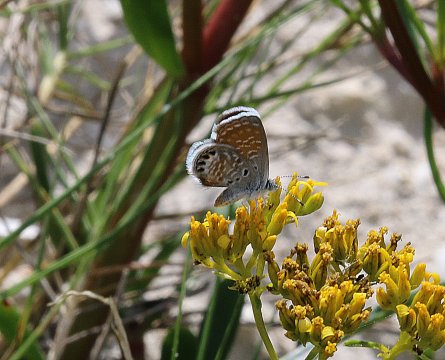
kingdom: Animalia
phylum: Arthropoda
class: Insecta
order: Lepidoptera
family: Lycaenidae
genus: Brephidium
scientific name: Brephidium exilis
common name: Western Pygmy-Blue
